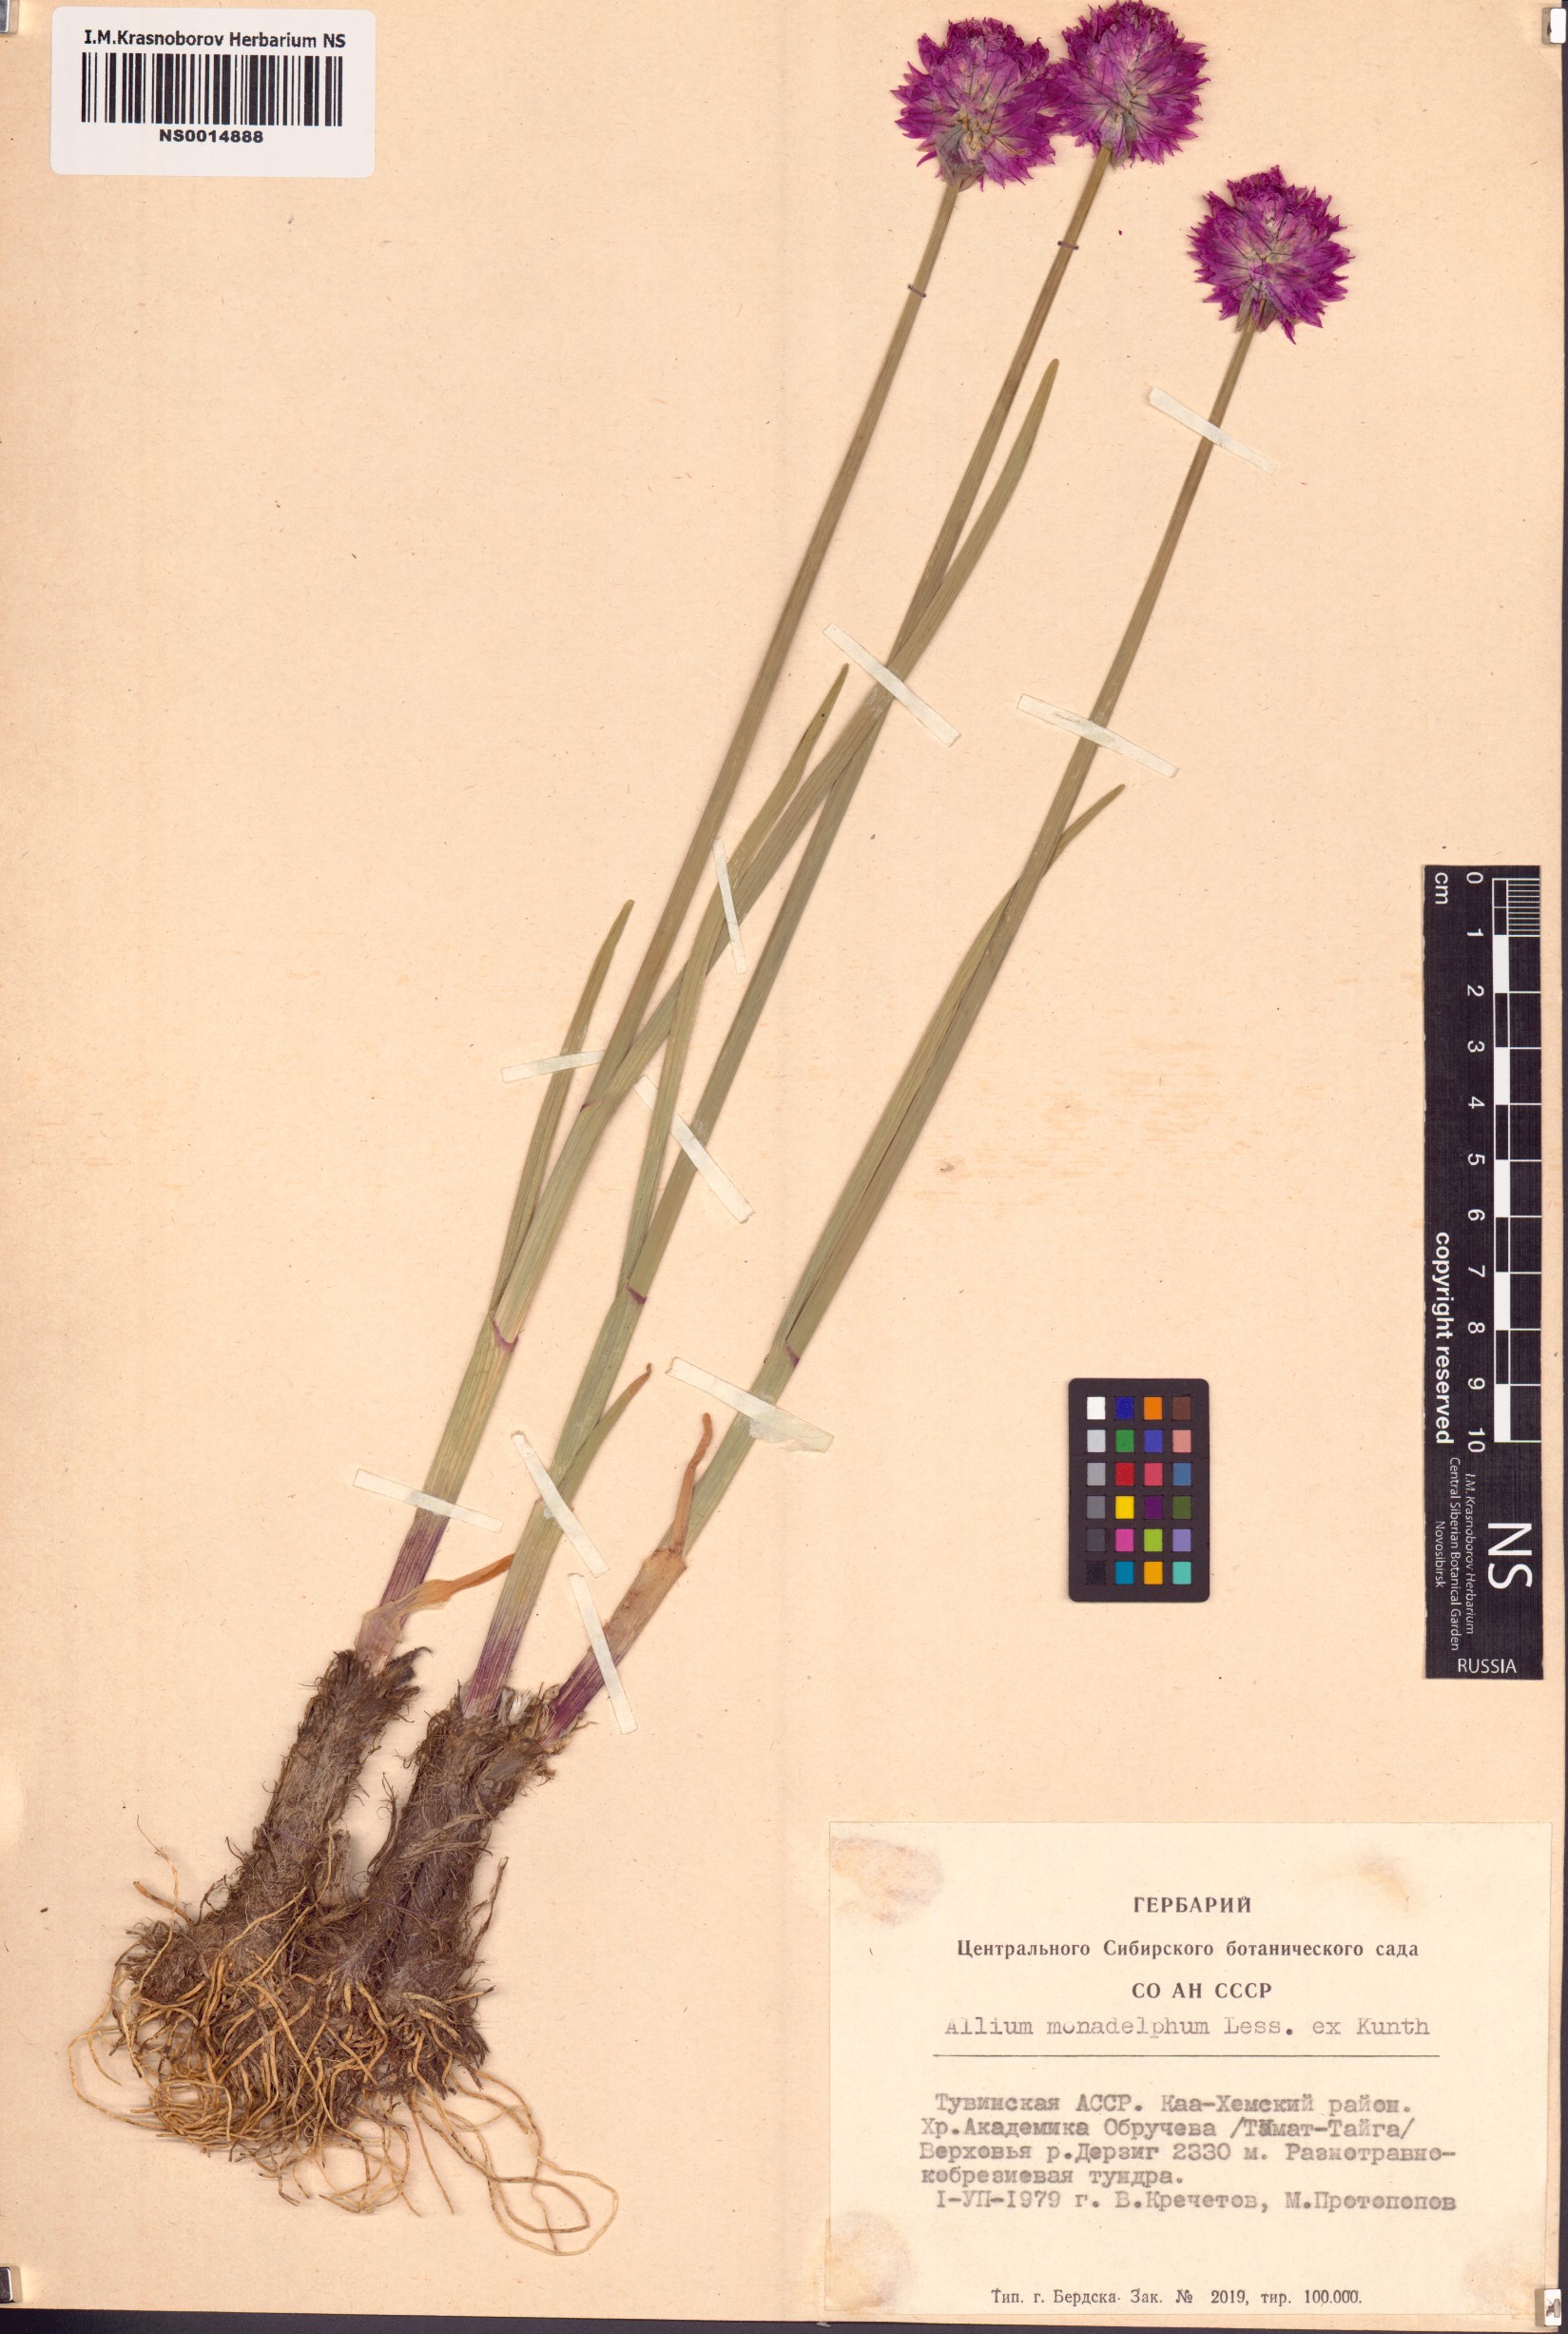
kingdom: Plantae
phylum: Tracheophyta
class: Liliopsida
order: Asparagales
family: Amaryllidaceae
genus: Allium
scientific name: Allium atrosanguineum
